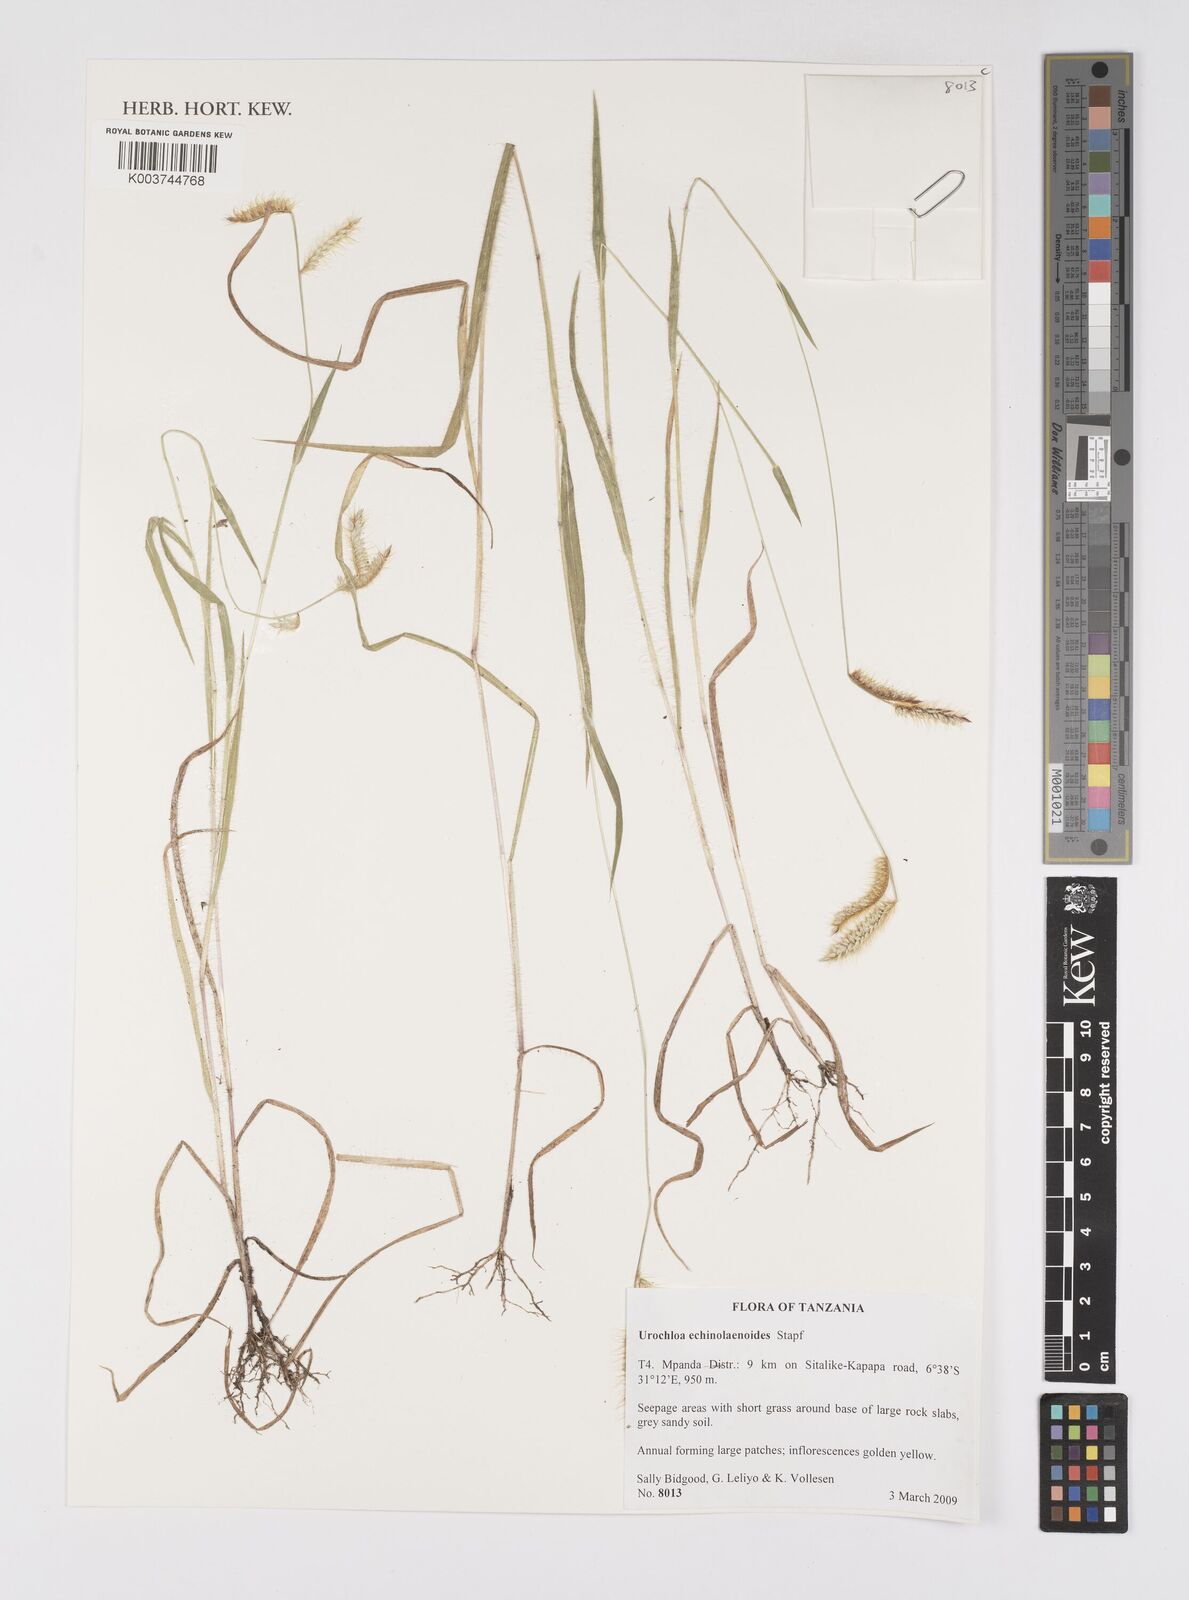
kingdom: Plantae
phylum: Tracheophyta
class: Liliopsida
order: Poales
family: Poaceae
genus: Urochloa
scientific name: Urochloa echinolaenoides
